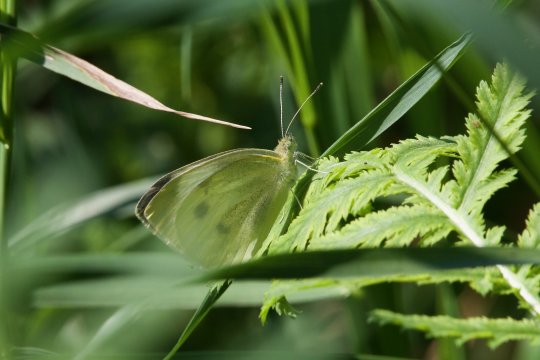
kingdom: Animalia
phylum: Arthropoda
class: Insecta
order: Lepidoptera
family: Pieridae
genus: Pieris
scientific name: Pieris rapae
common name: Cabbage White
